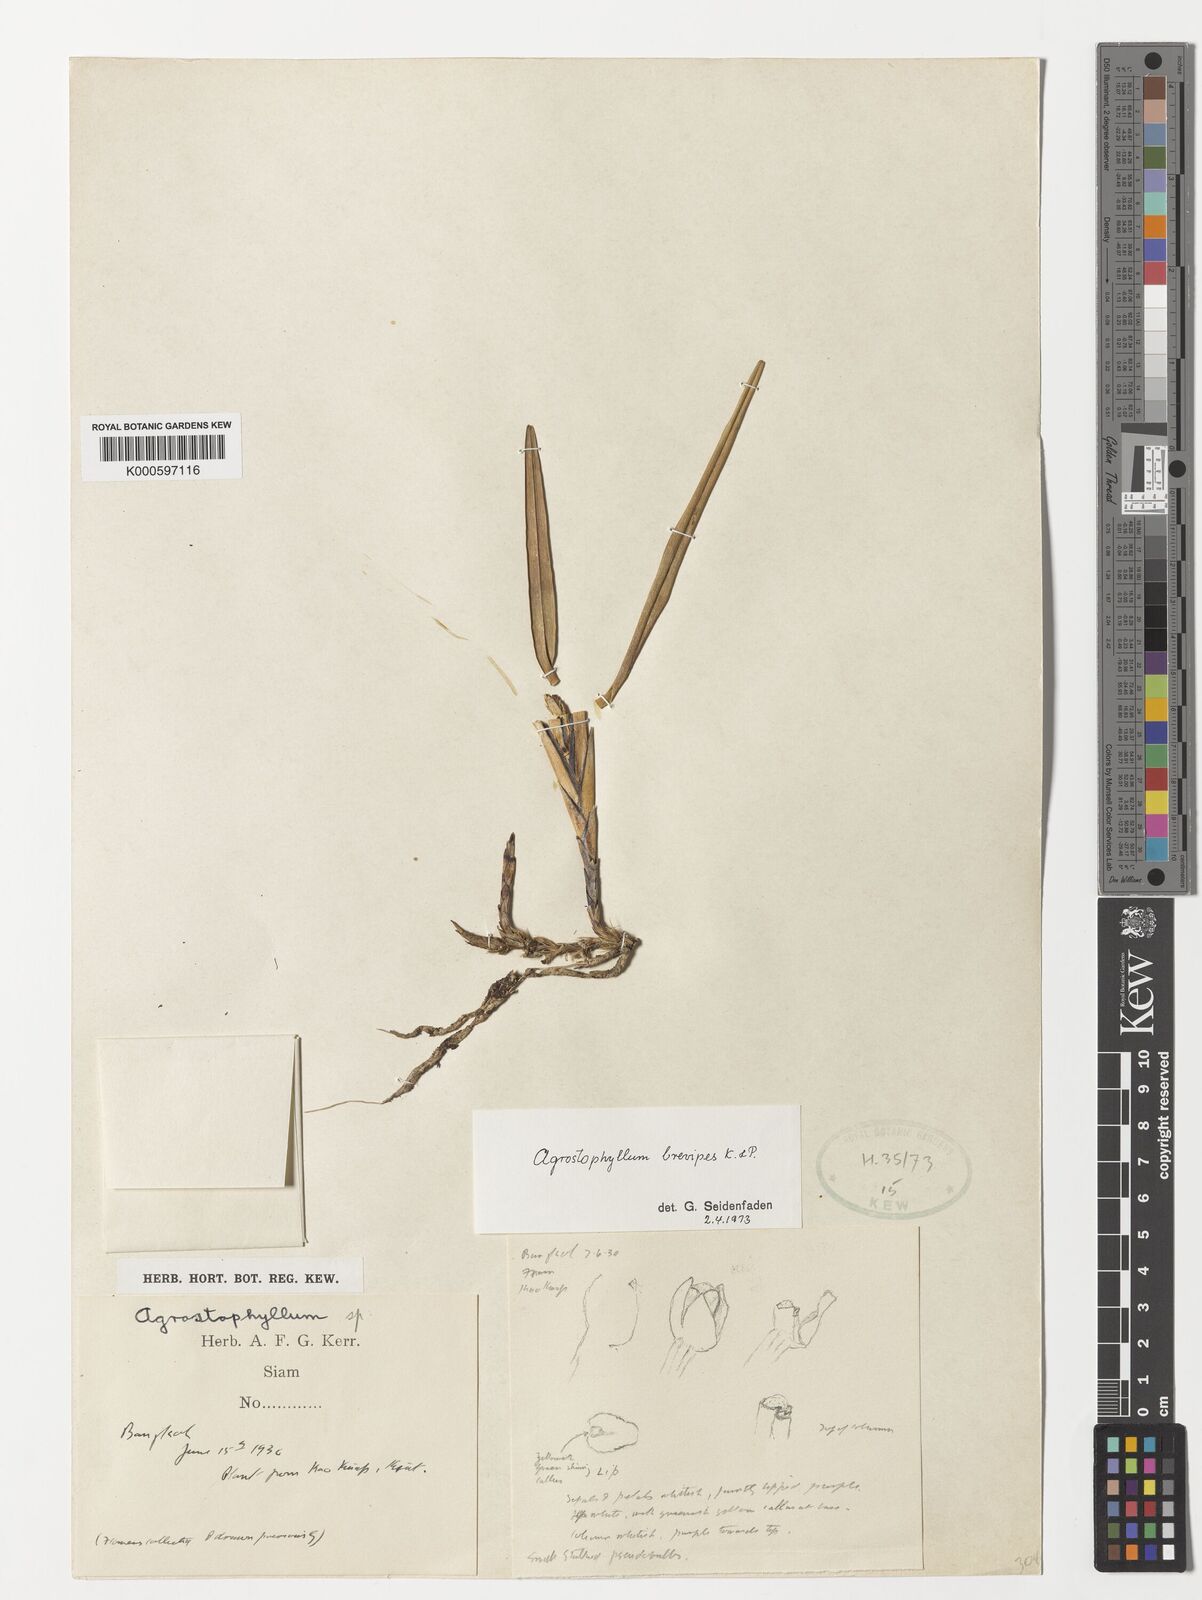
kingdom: Plantae
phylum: Tracheophyta
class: Liliopsida
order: Asparagales
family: Orchidaceae
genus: Agrostophyllum
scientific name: Agrostophyllum brevipes
